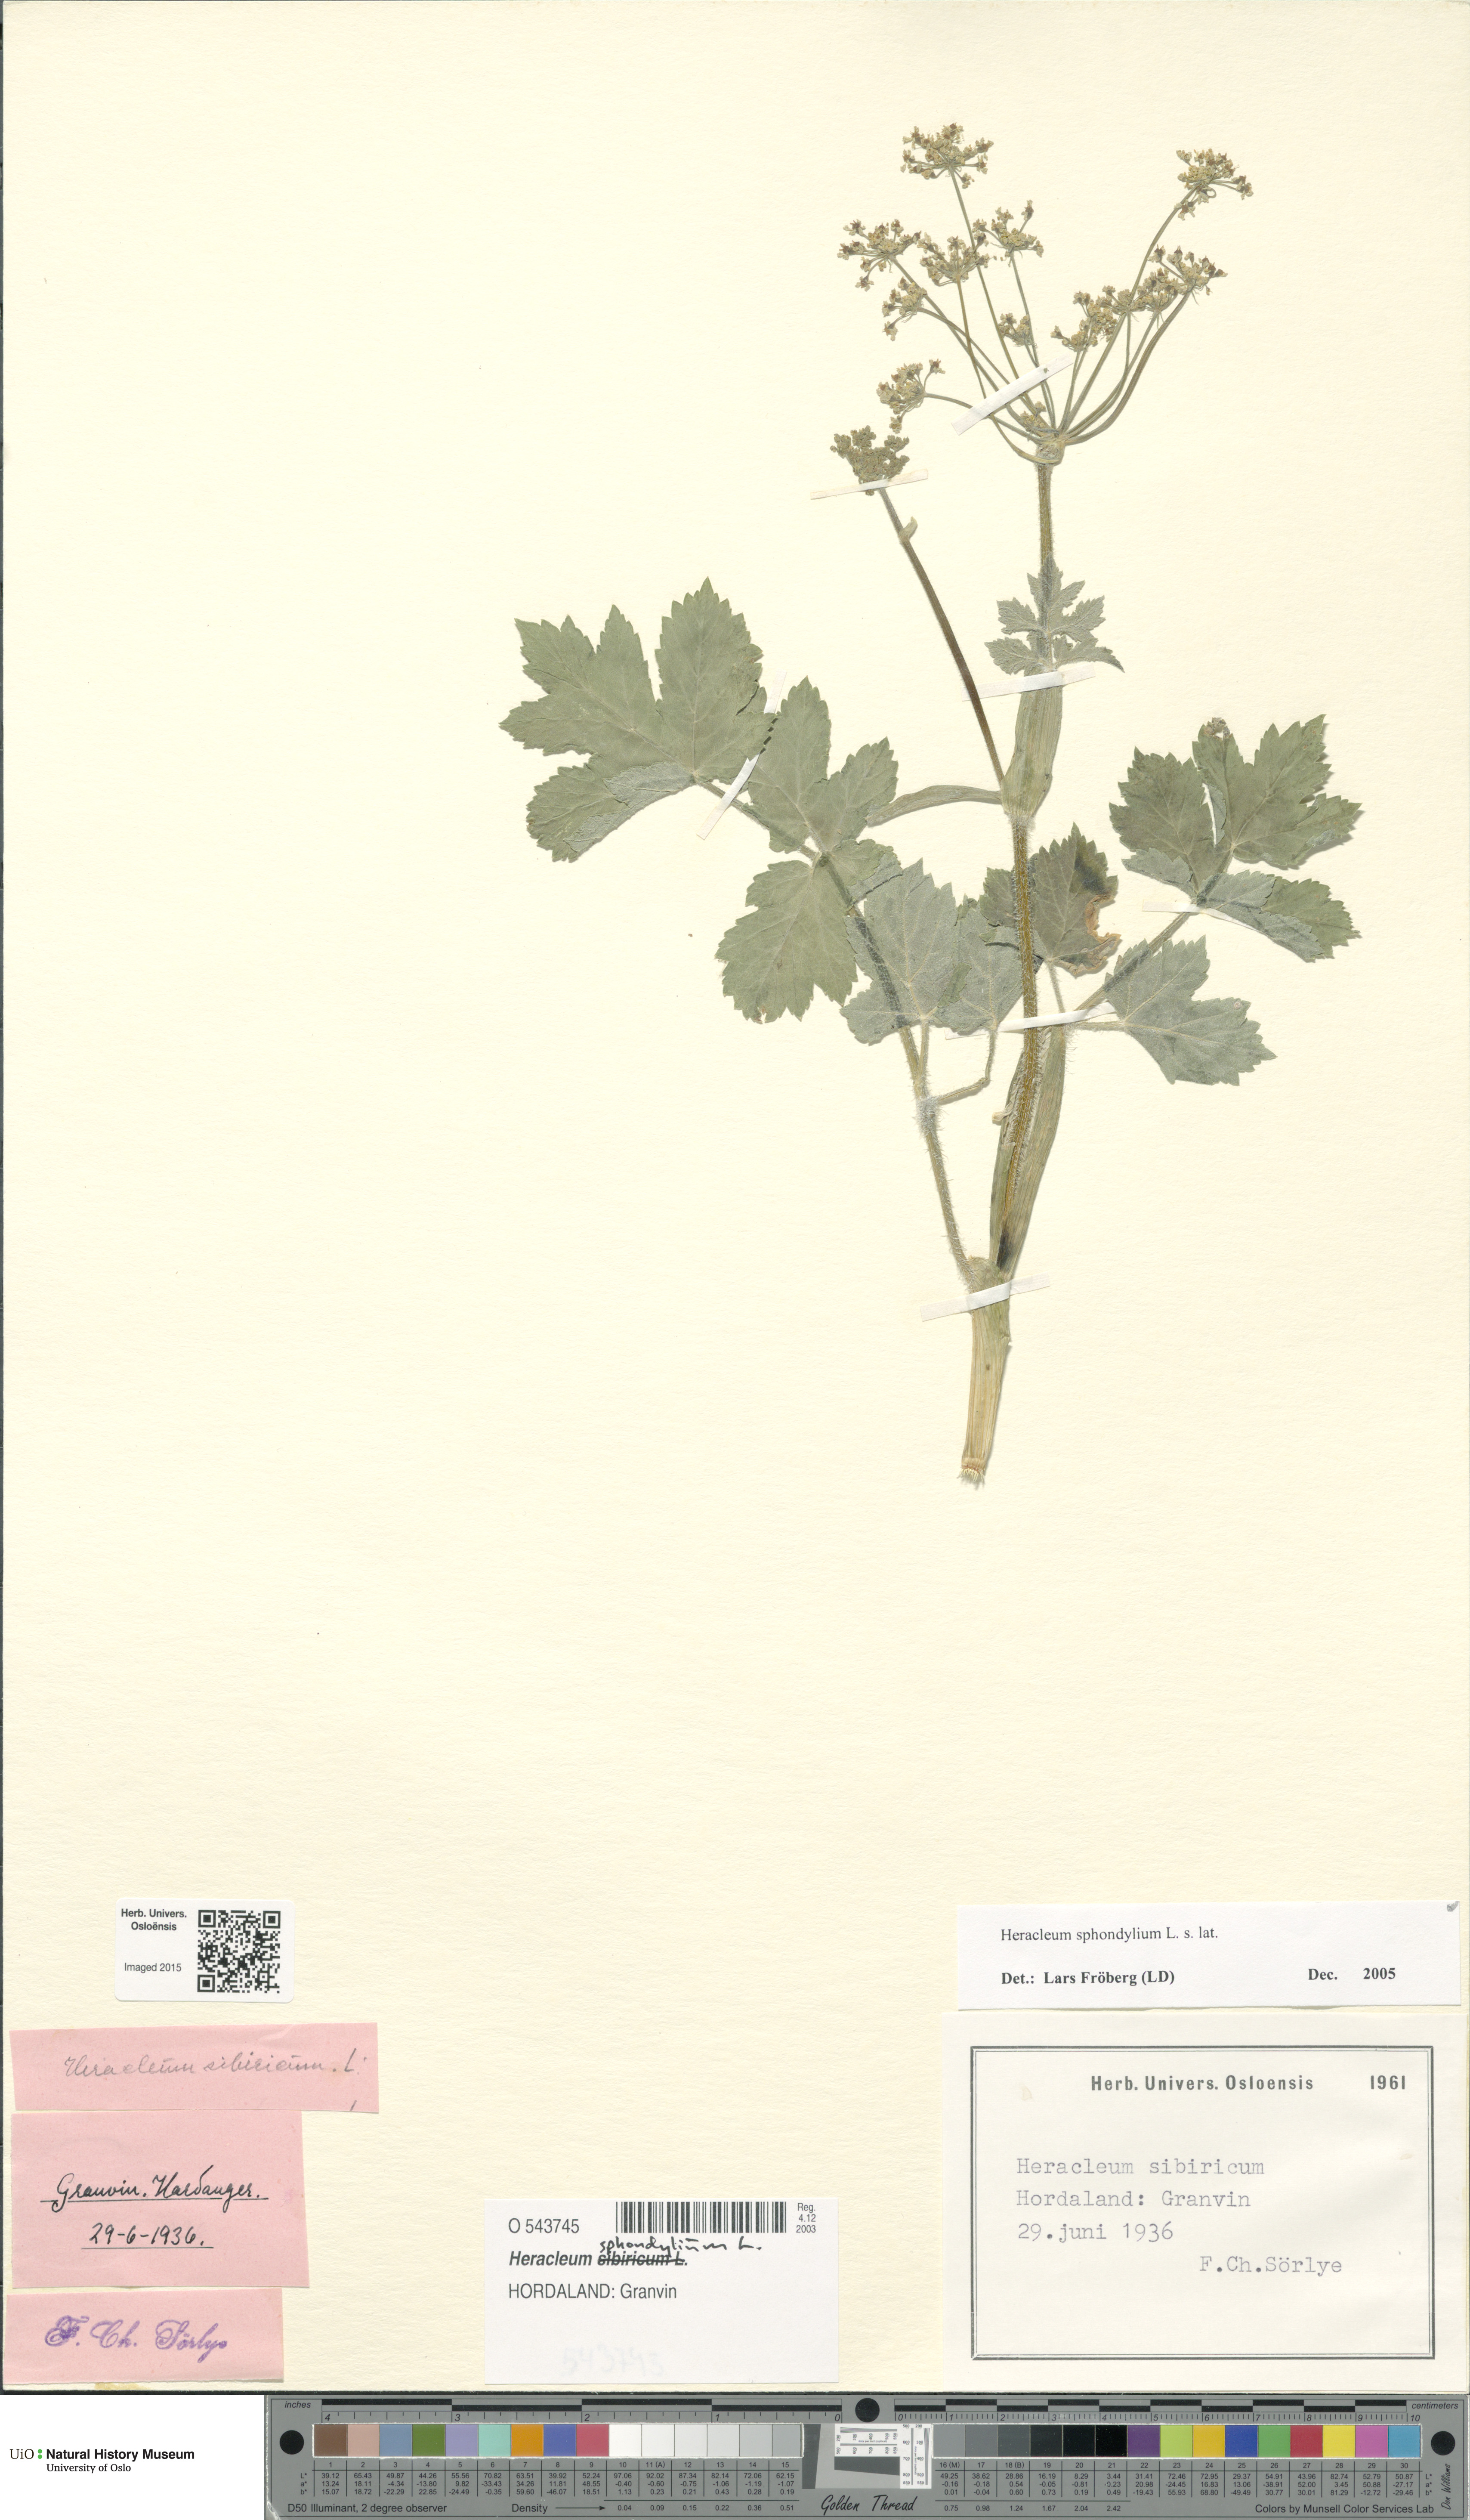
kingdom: Plantae
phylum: Tracheophyta
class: Magnoliopsida
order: Apiales
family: Apiaceae
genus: Heracleum
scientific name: Heracleum sphondylium
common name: Hogweed
